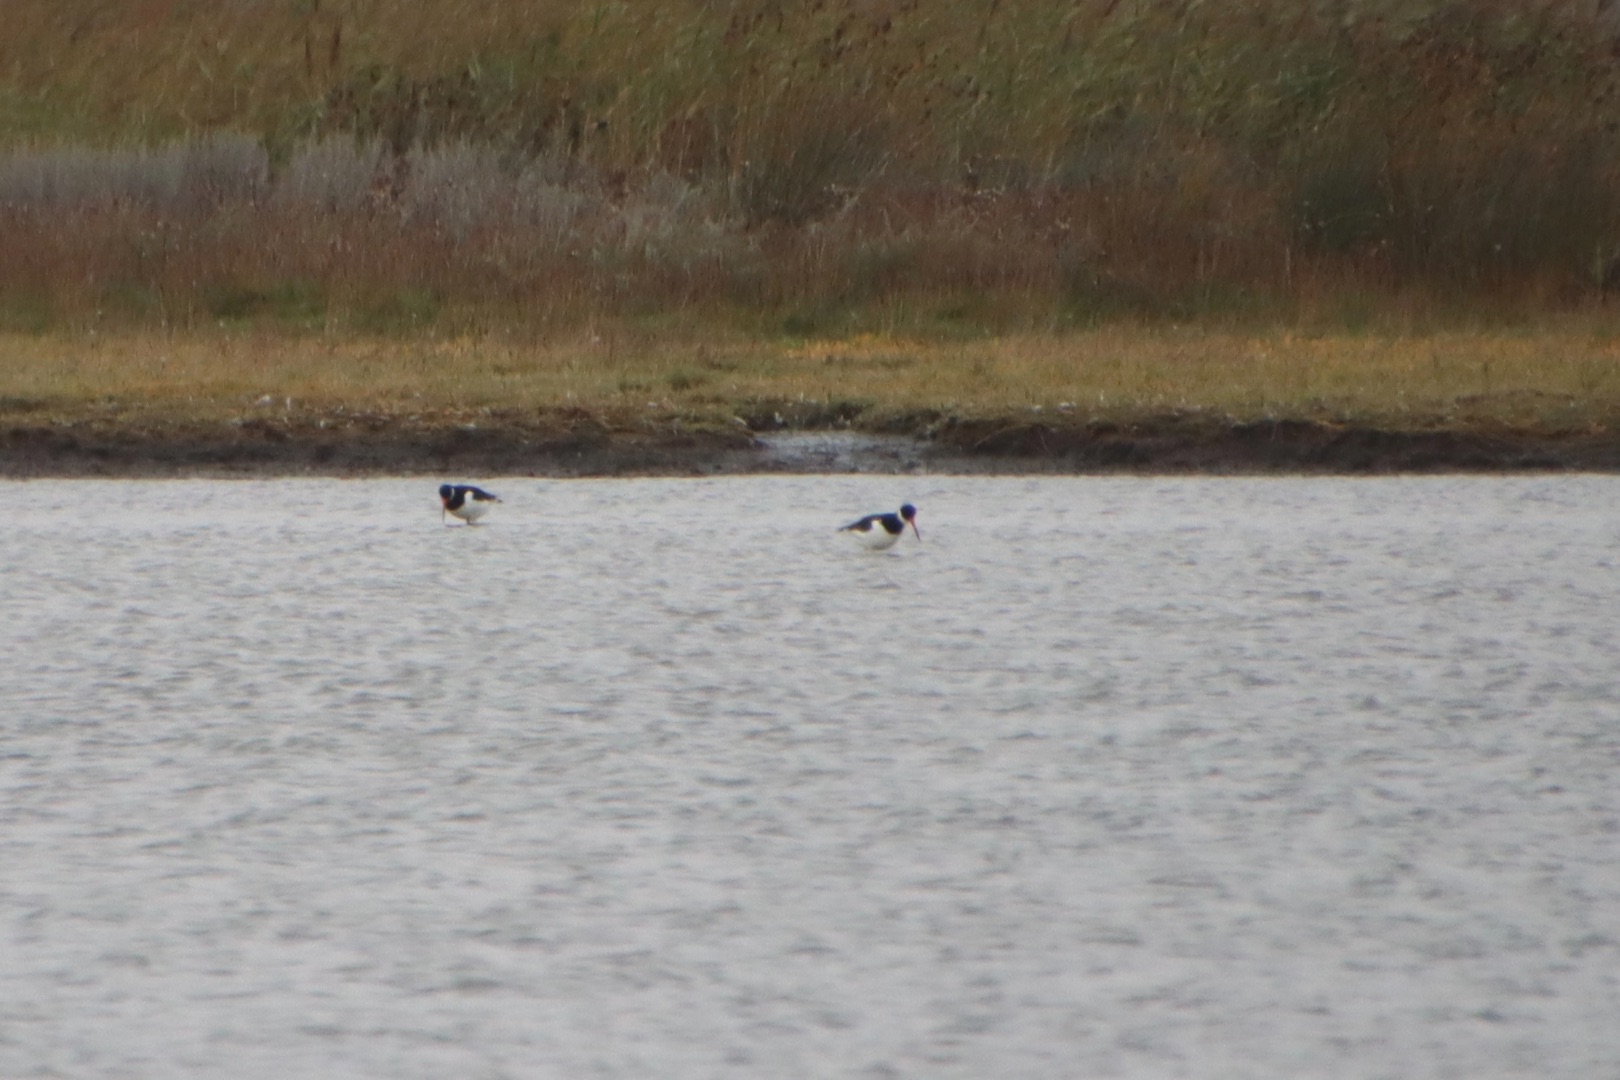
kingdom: Animalia
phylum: Chordata
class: Aves
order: Charadriiformes
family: Haematopodidae
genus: Haematopus
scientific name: Haematopus ostralegus
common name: Strandskade
